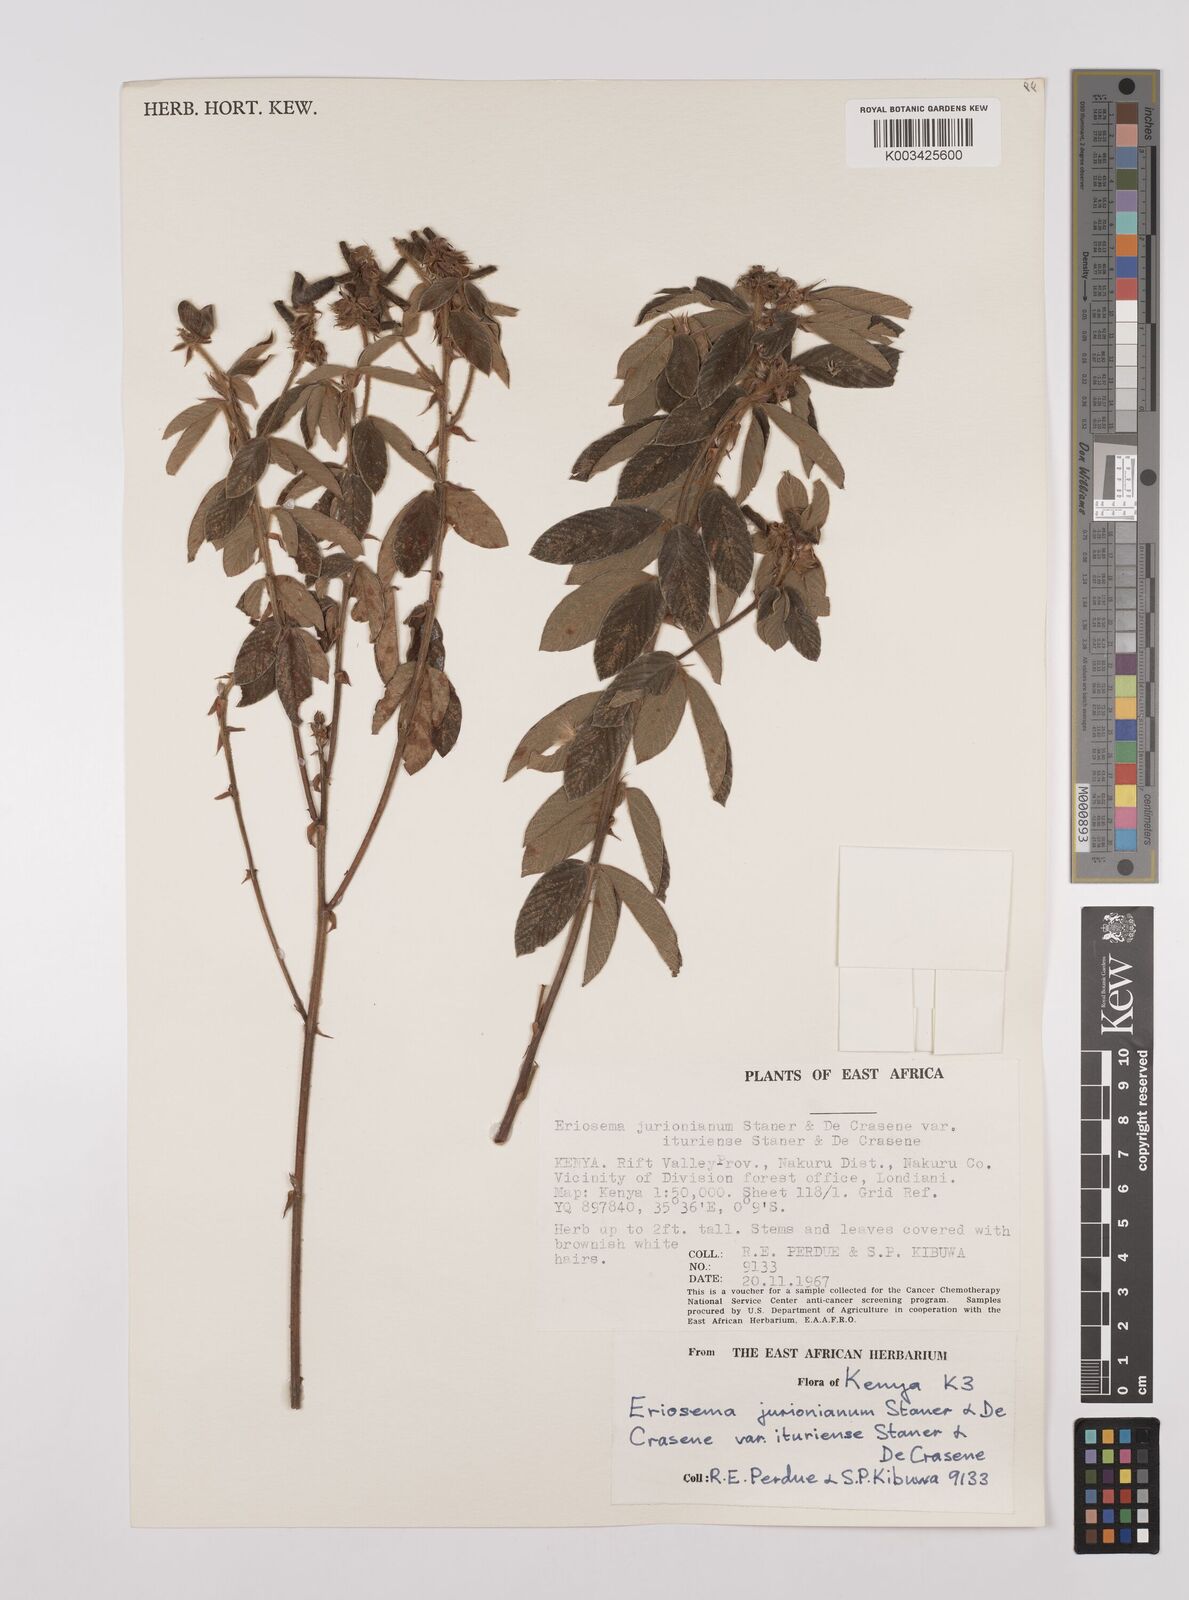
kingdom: Plantae
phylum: Tracheophyta
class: Magnoliopsida
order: Fabales
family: Fabaceae
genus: Eriosema
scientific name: Eriosema jurionianum
